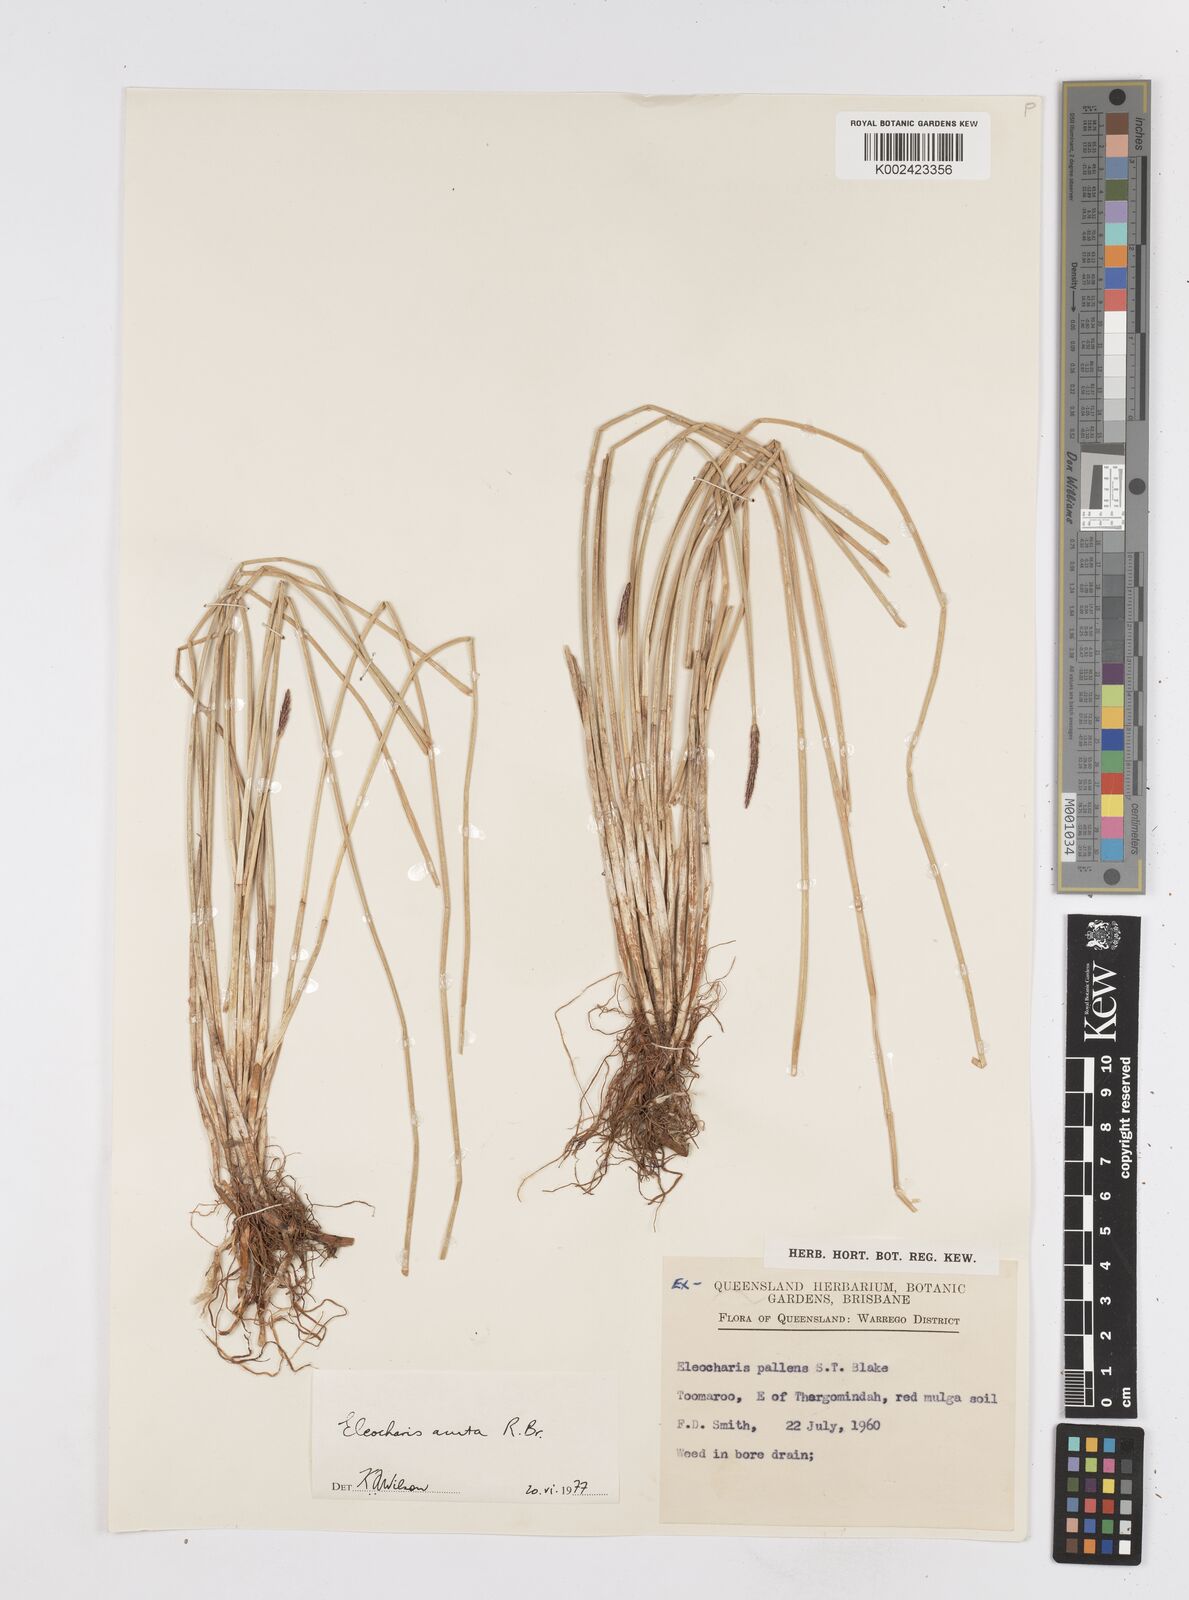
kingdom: Plantae
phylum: Tracheophyta
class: Liliopsida
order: Poales
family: Cyperaceae
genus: Eleocharis
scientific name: Eleocharis acuta
